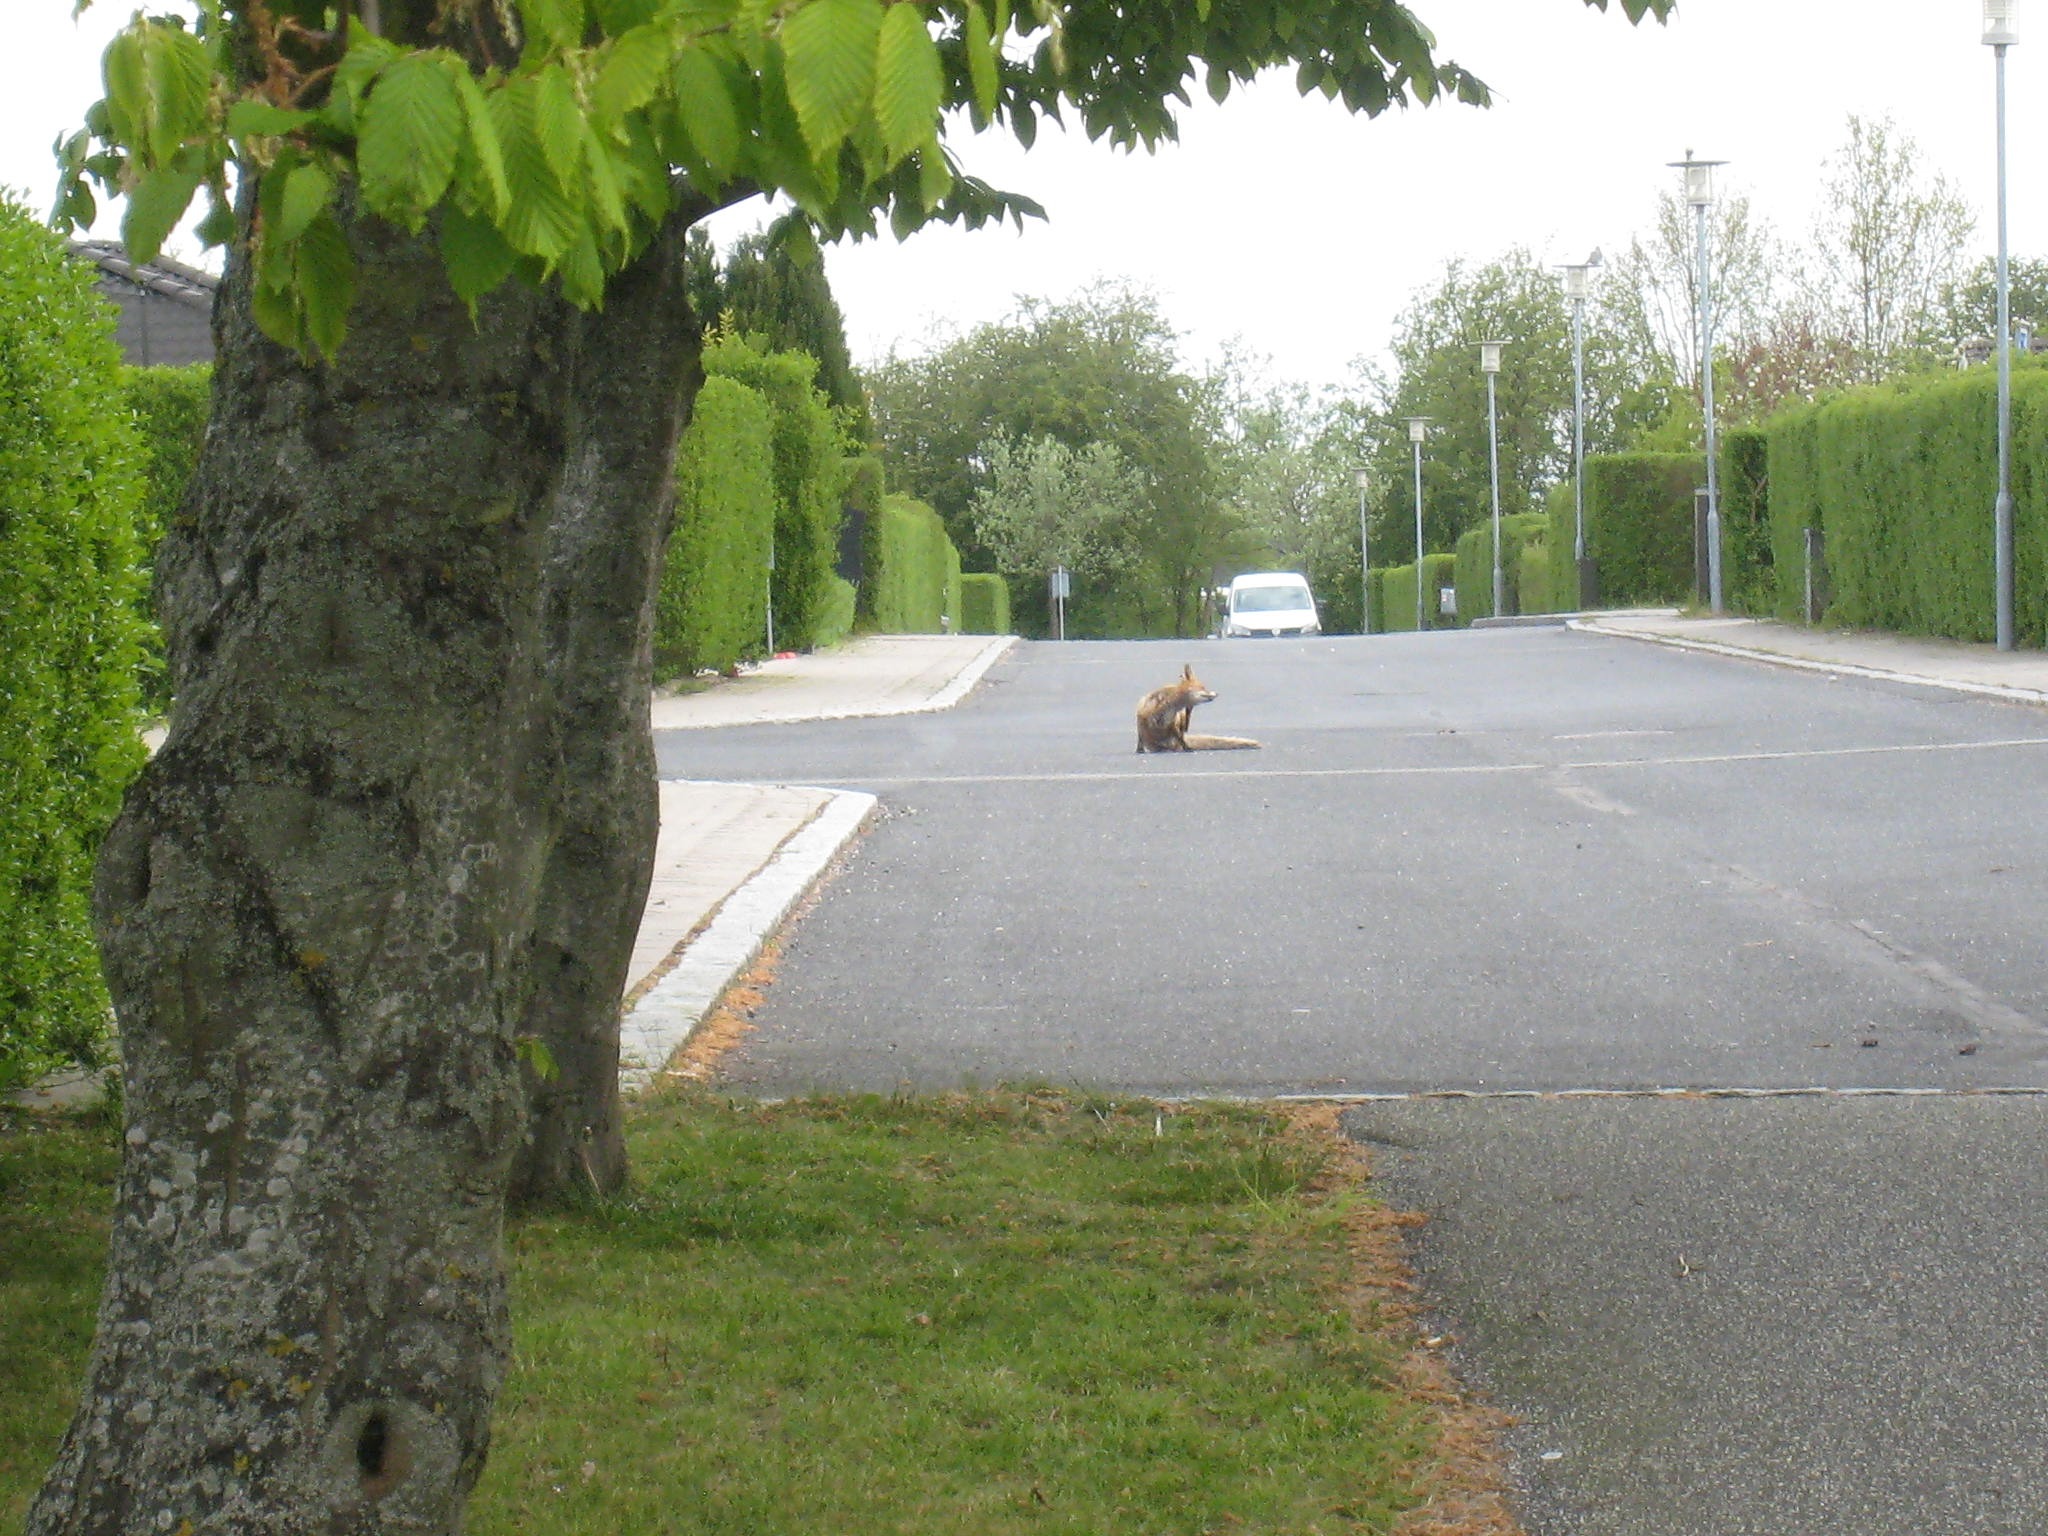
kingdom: Animalia
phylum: Chordata
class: Mammalia
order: Carnivora
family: Canidae
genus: Vulpes
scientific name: Vulpes vulpes
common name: Ræv
